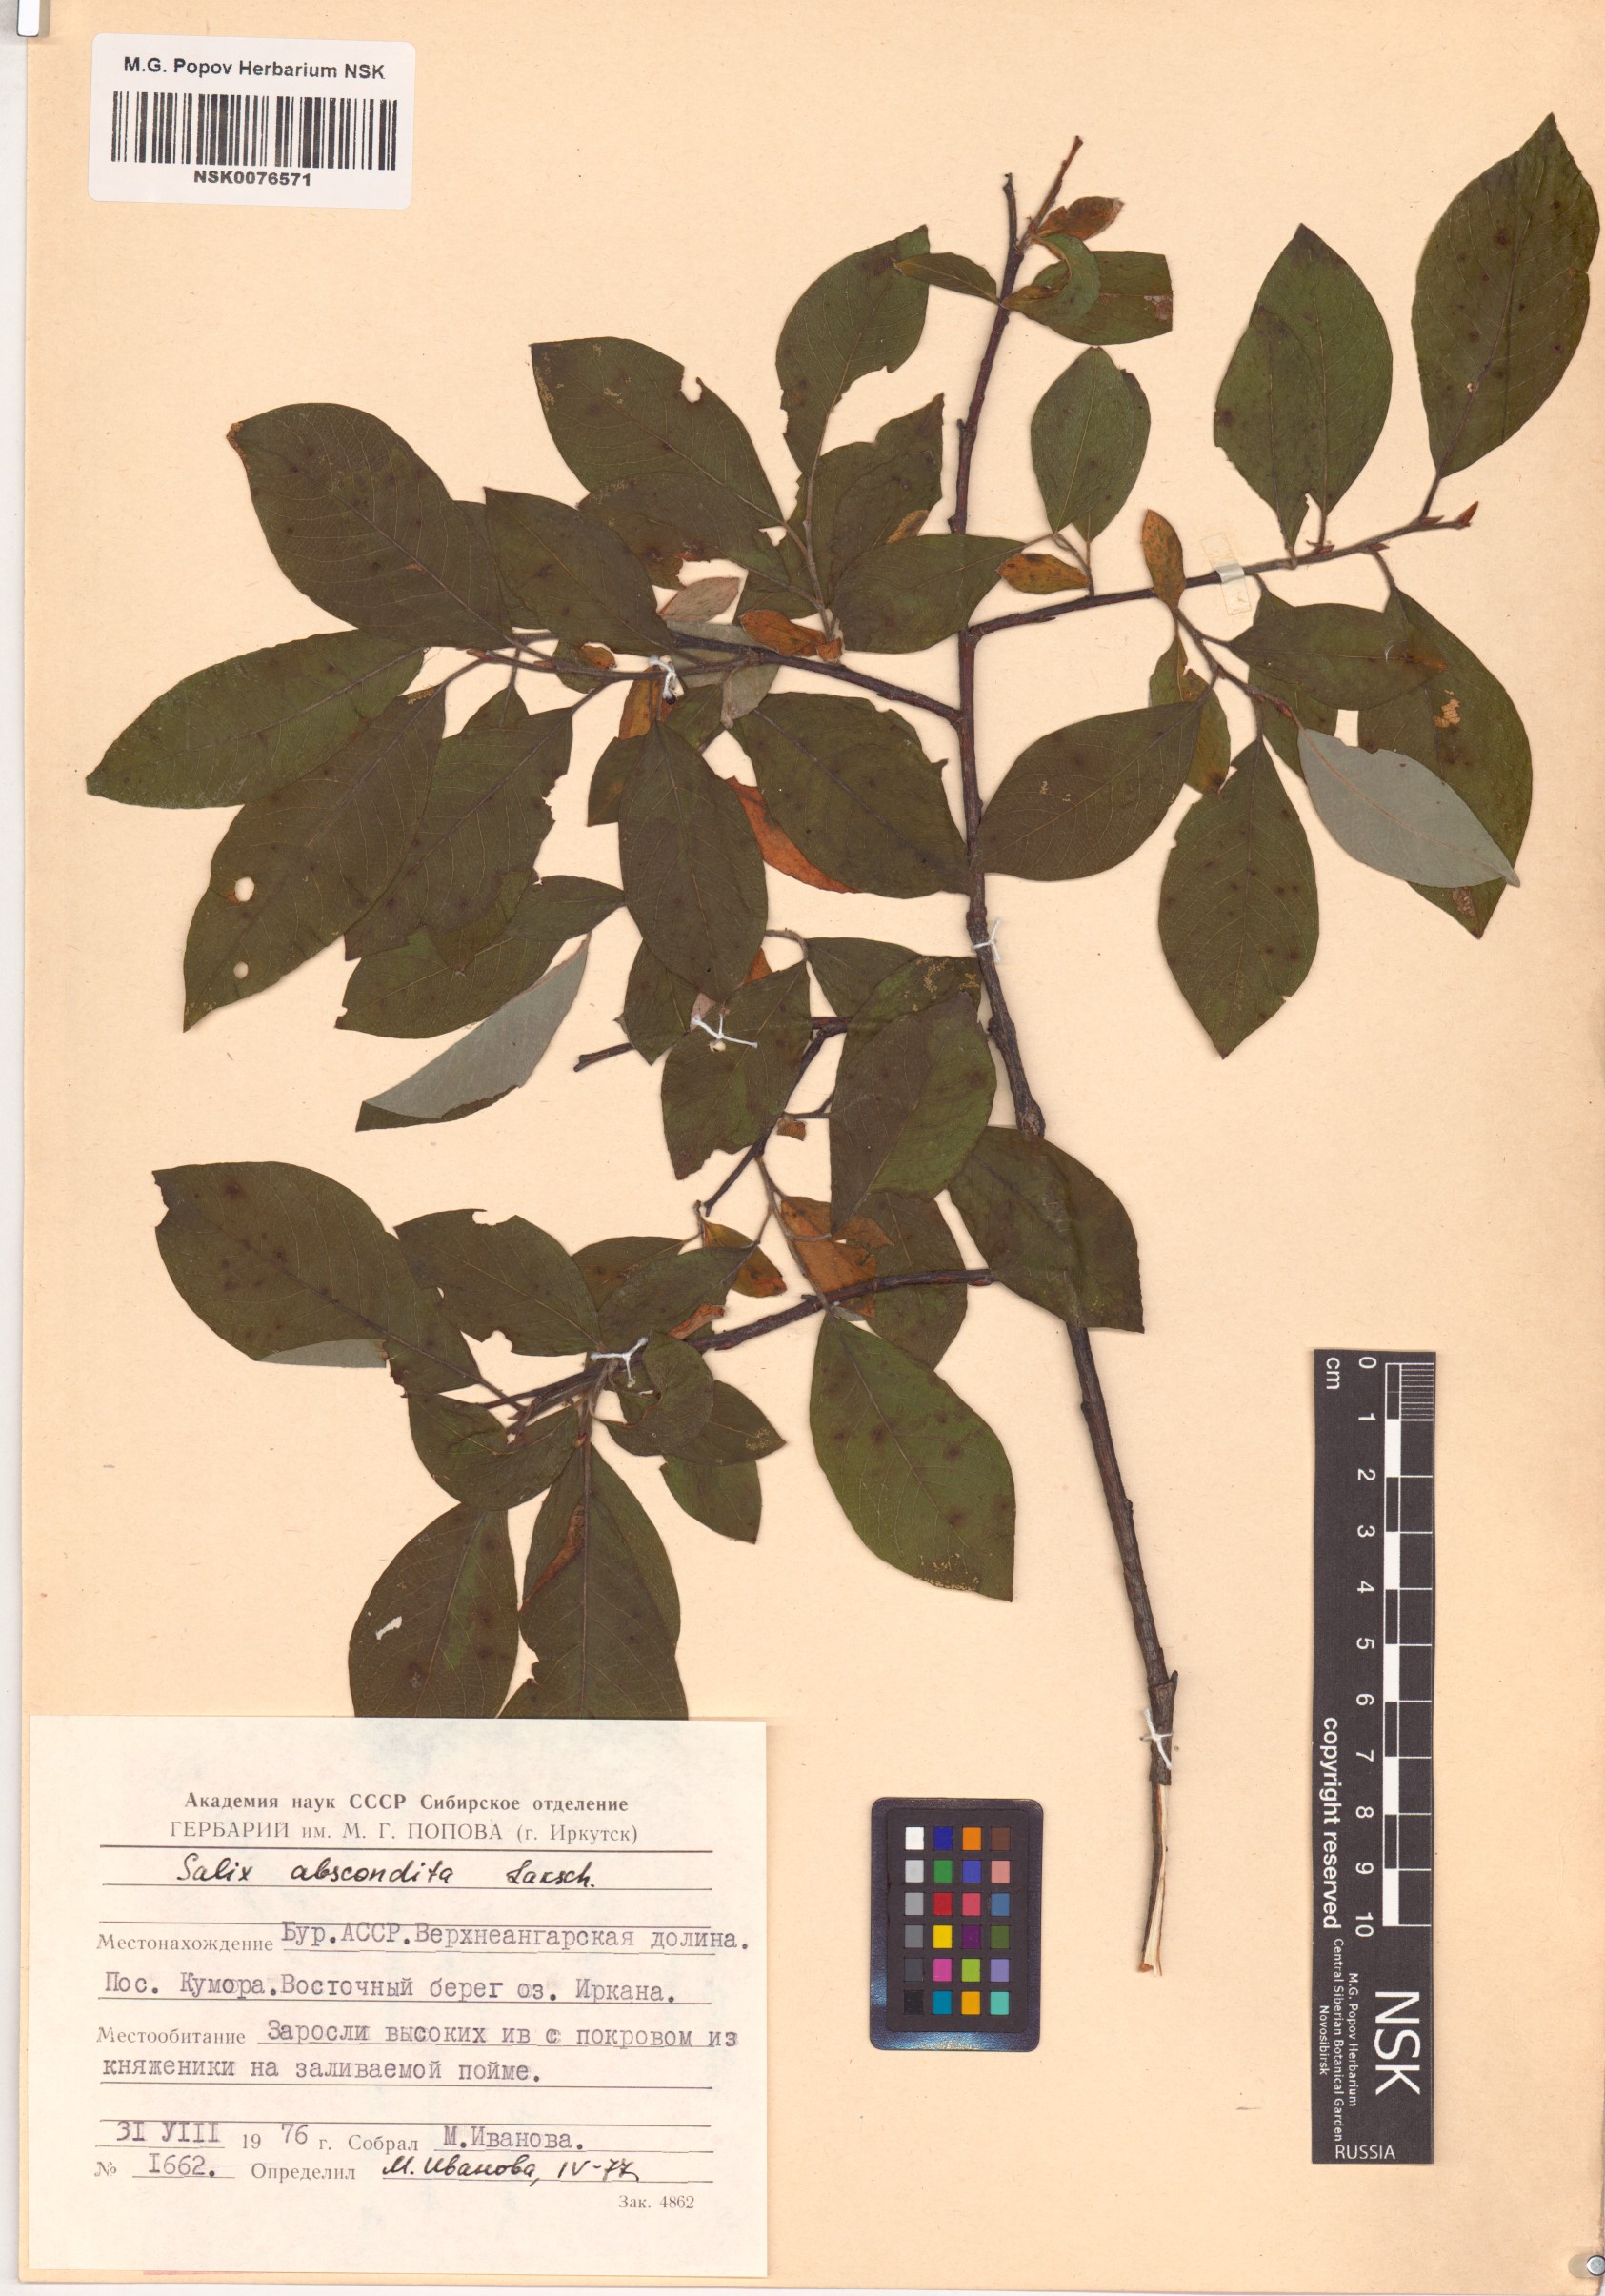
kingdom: Plantae
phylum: Tracheophyta
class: Magnoliopsida
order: Malpighiales
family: Salicaceae
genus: Salix
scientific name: Salix abscondita
